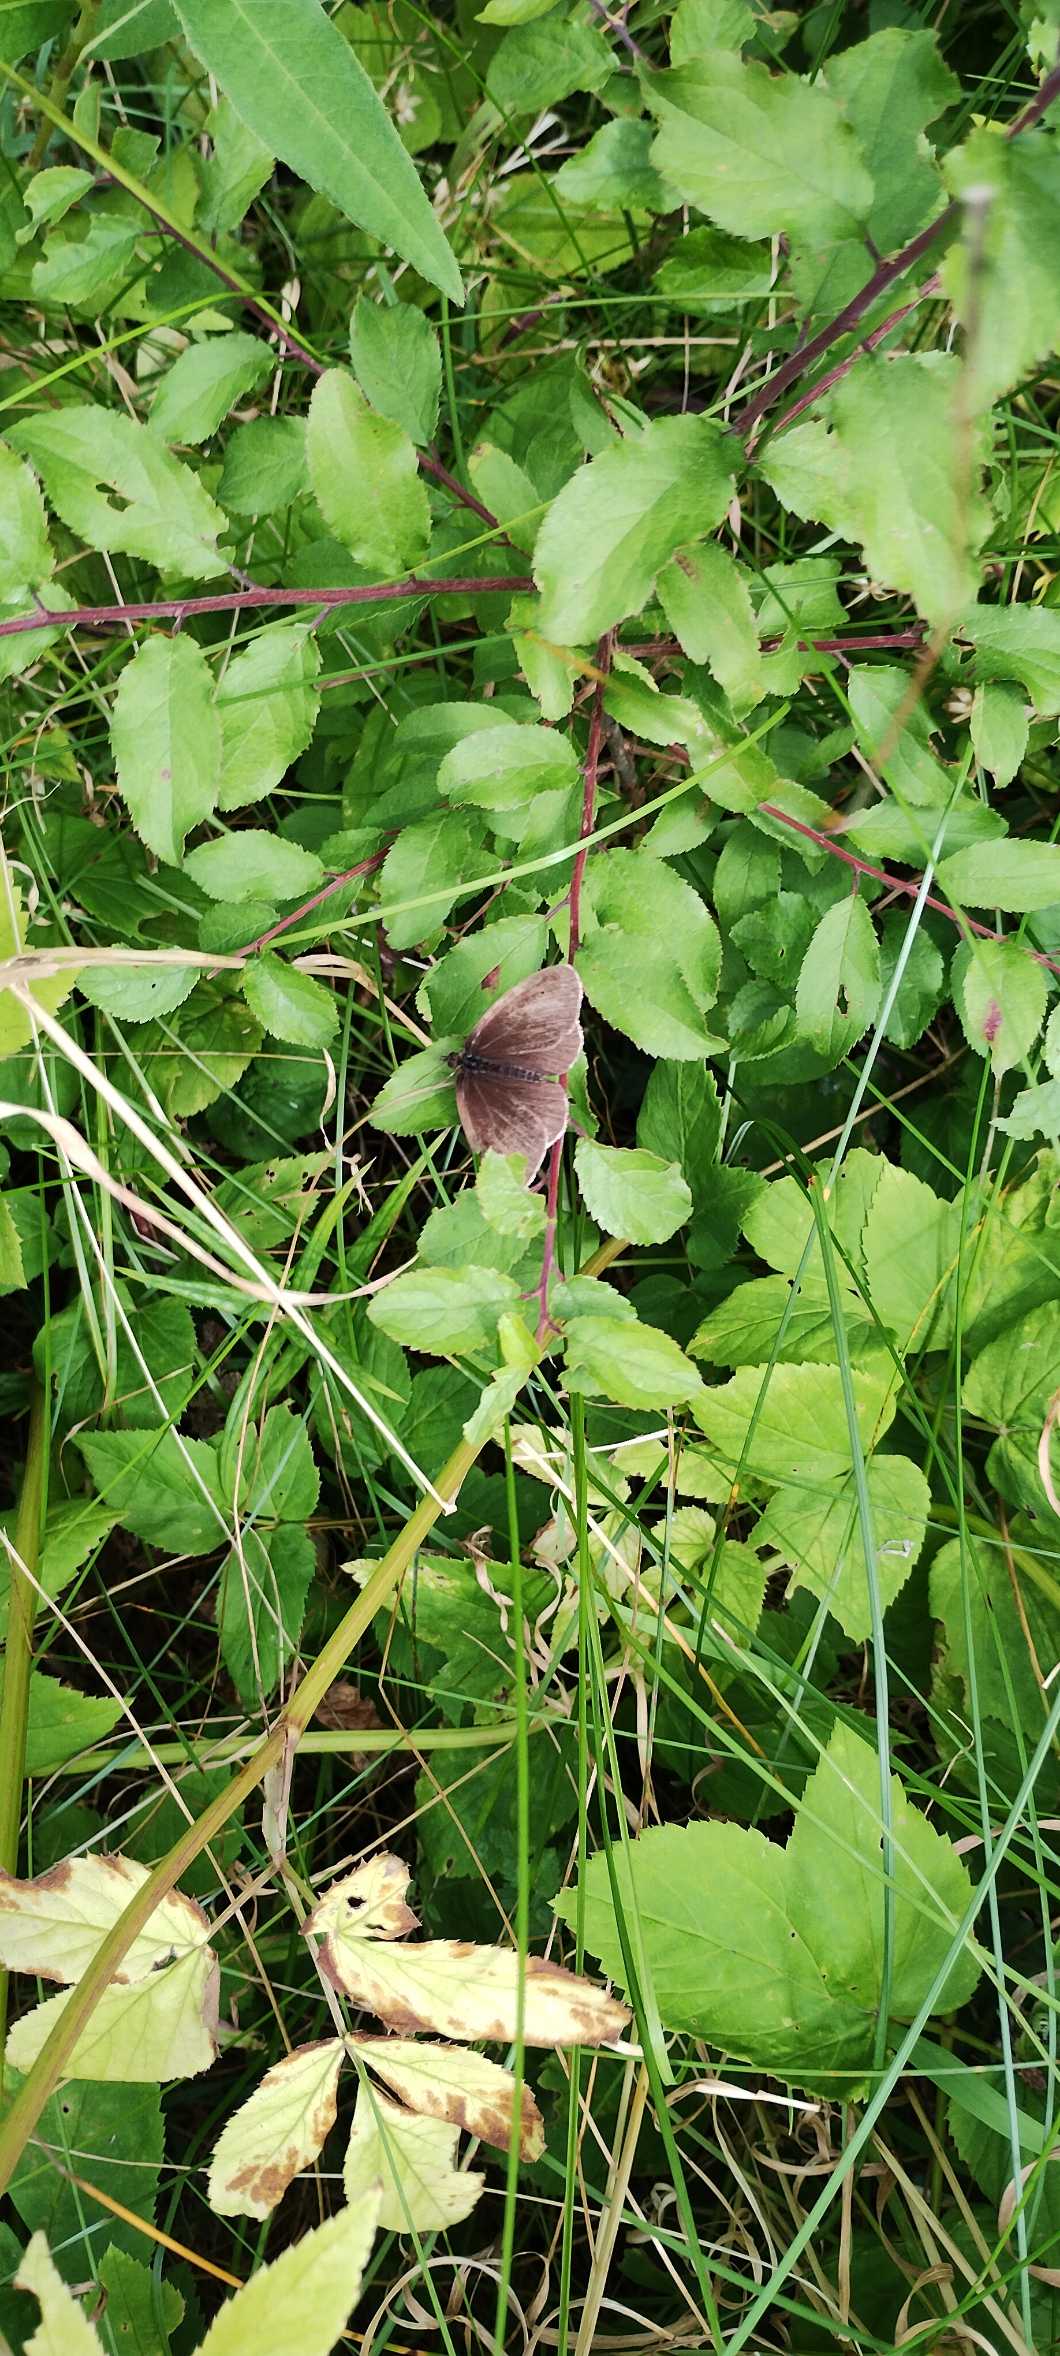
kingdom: Animalia
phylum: Arthropoda
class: Insecta
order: Lepidoptera
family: Nymphalidae
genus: Aphantopus
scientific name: Aphantopus hyperantus
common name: Engrandøje
